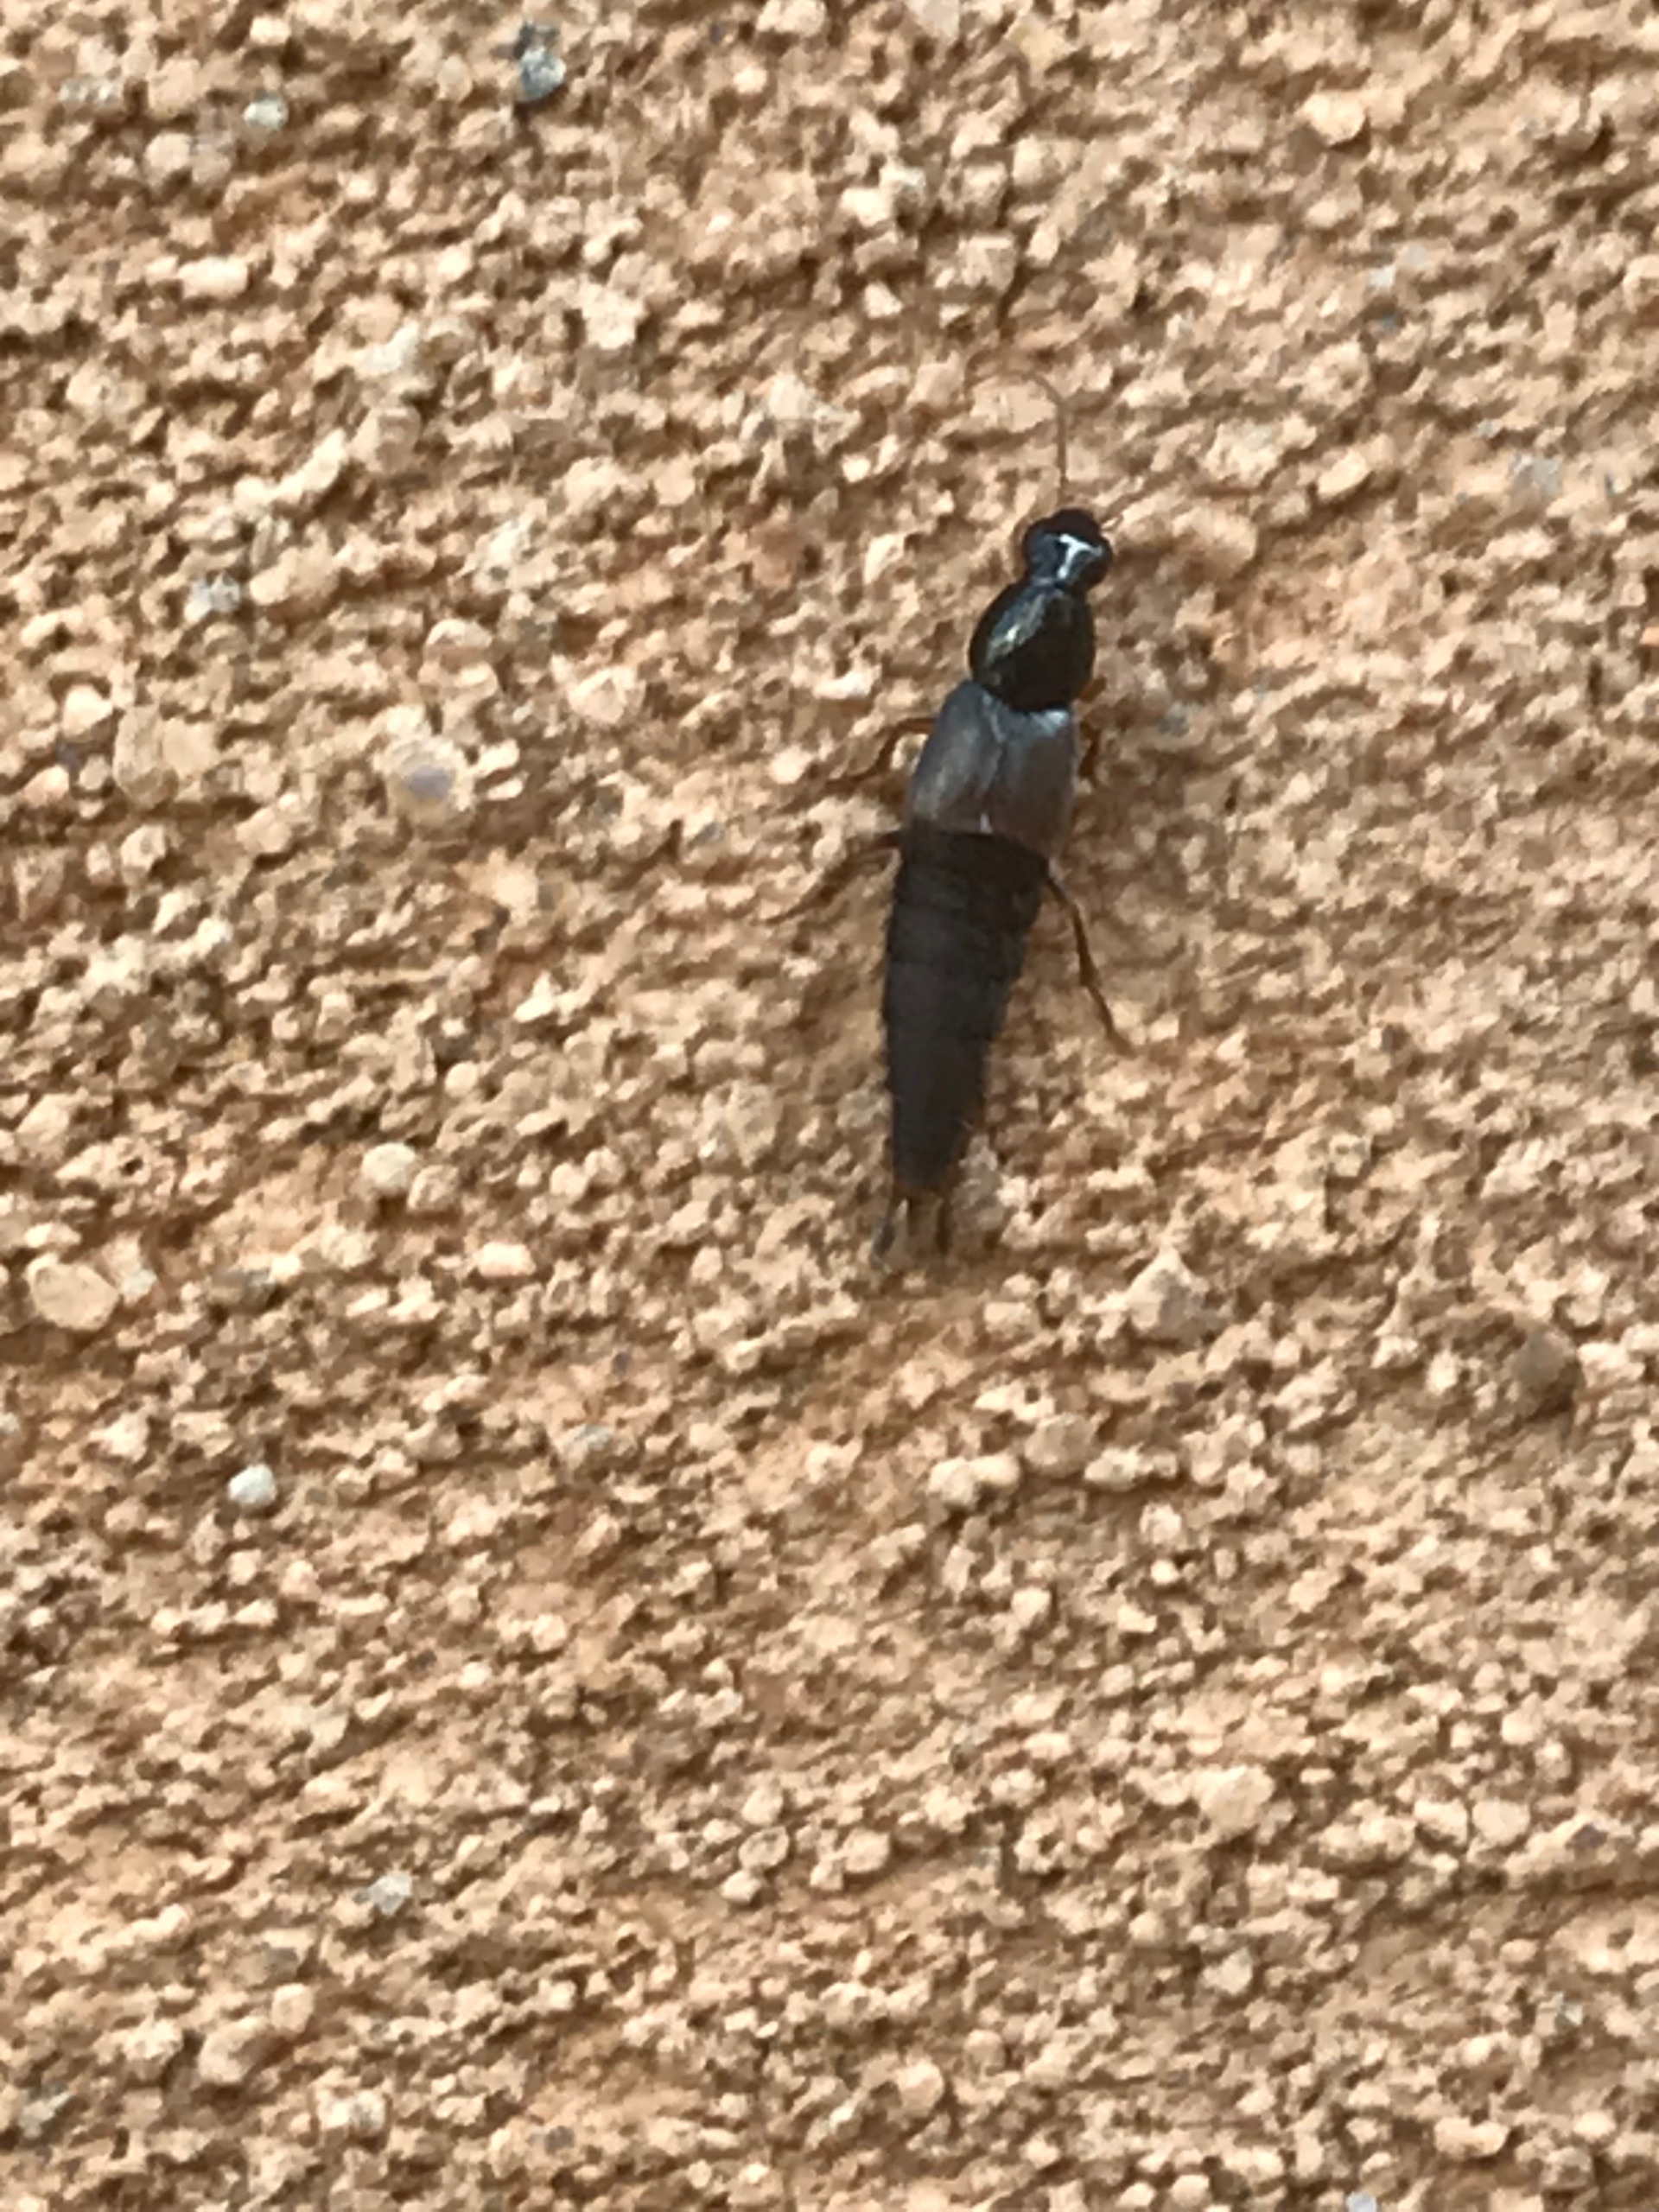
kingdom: Animalia
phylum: Arthropoda
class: Insecta
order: Coleoptera
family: Staphylinidae
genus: Quedius
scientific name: Quedius
